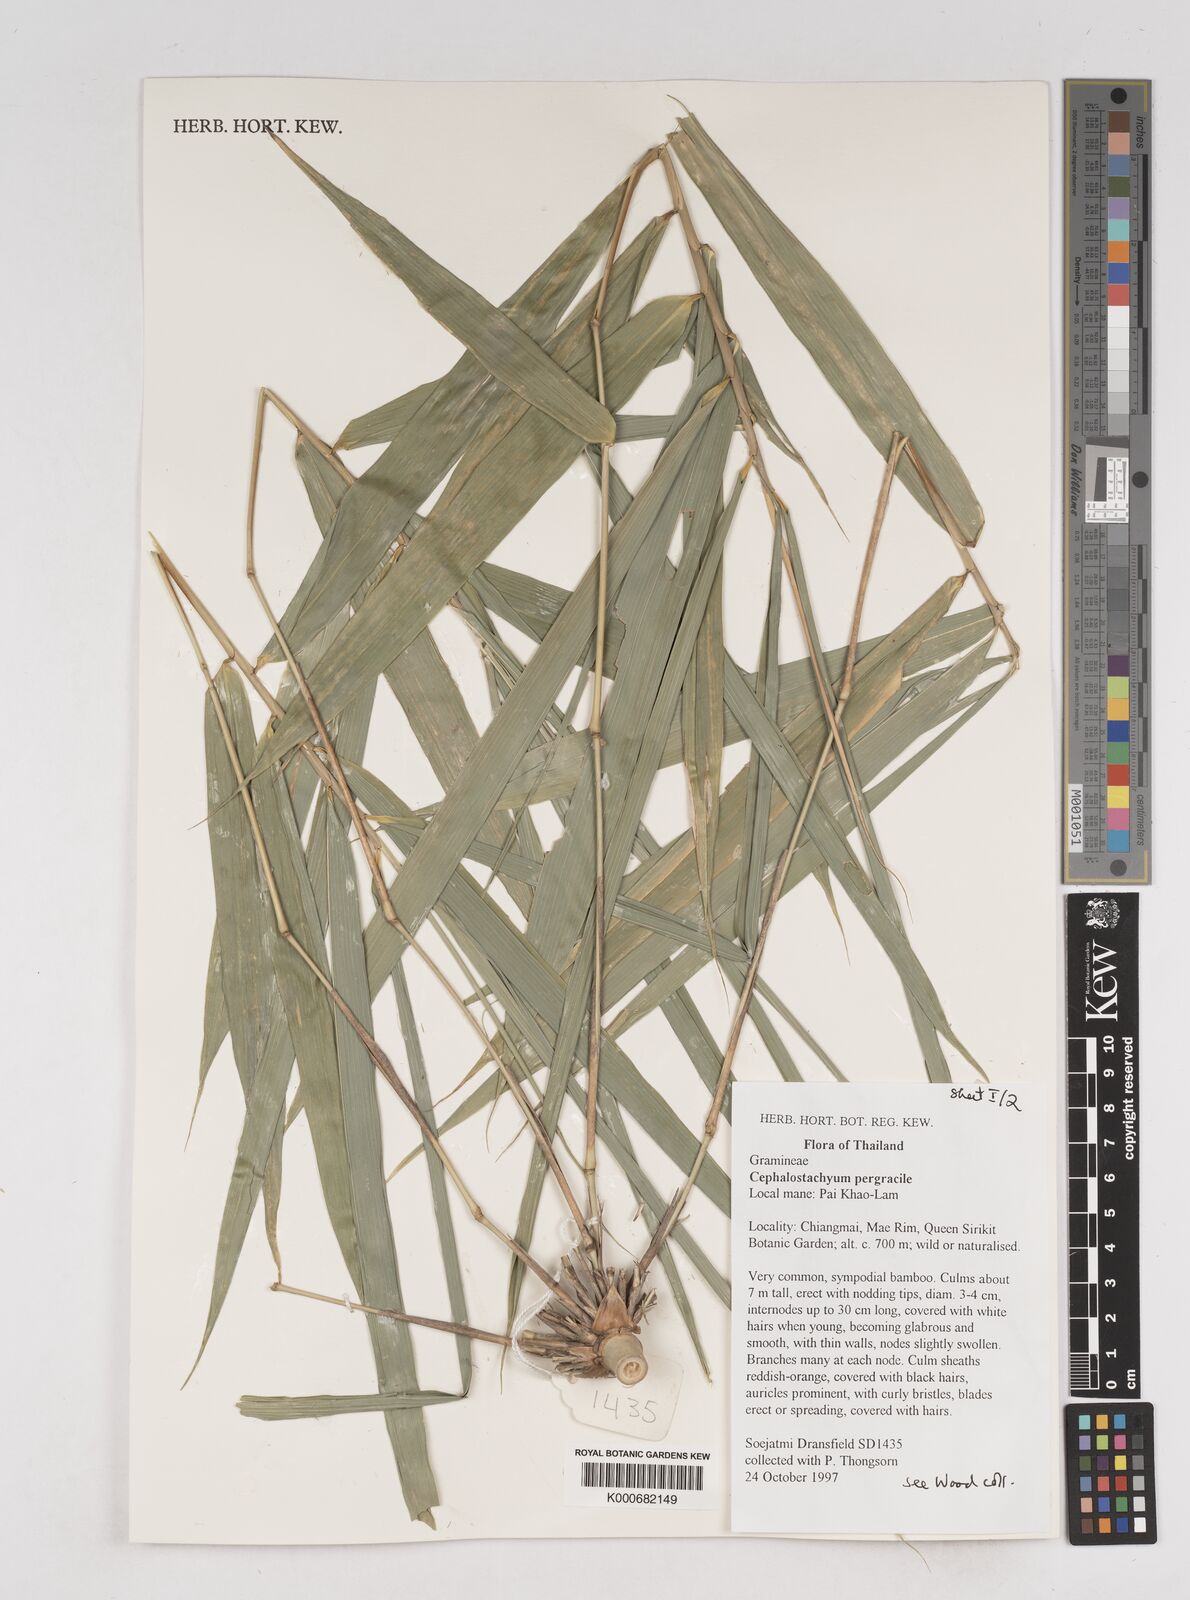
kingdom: Plantae
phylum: Tracheophyta
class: Liliopsida
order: Poales
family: Poaceae
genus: Schizostachyum
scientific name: Schizostachyum pergracile
